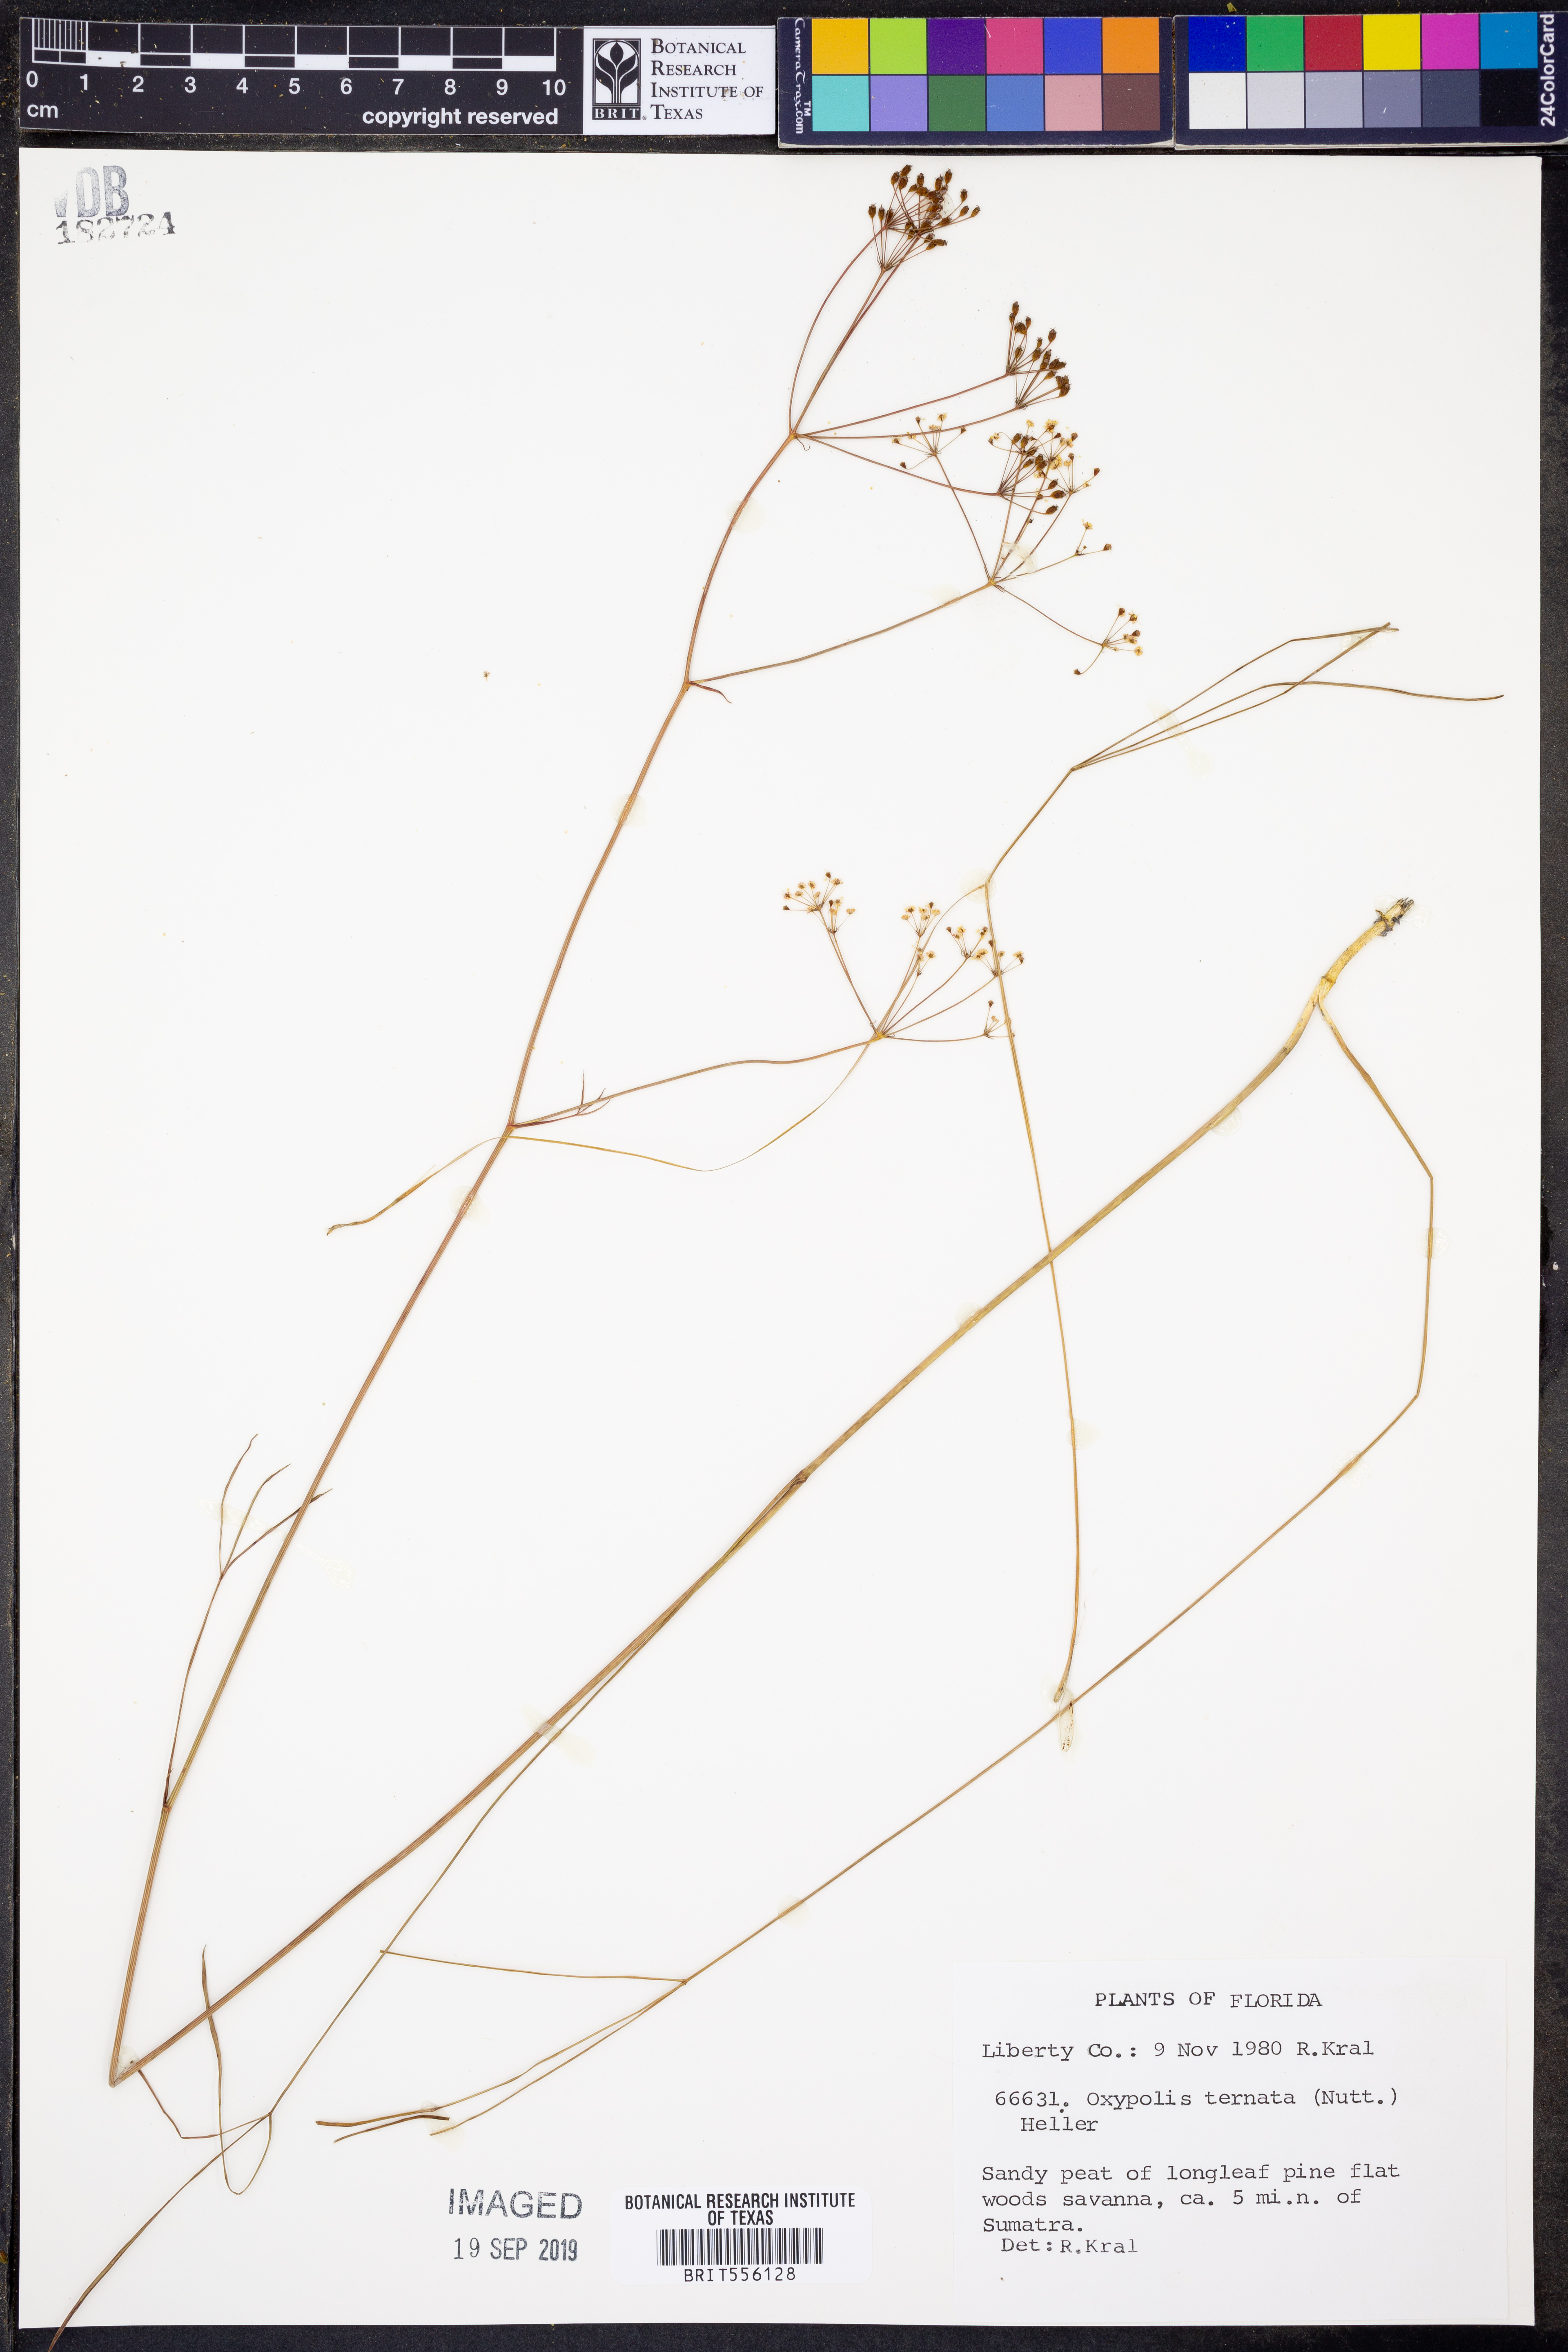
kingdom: Plantae
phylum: Tracheophyta
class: Magnoliopsida
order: Apiales
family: Apiaceae
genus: Oxypolis
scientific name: Oxypolis ternata
